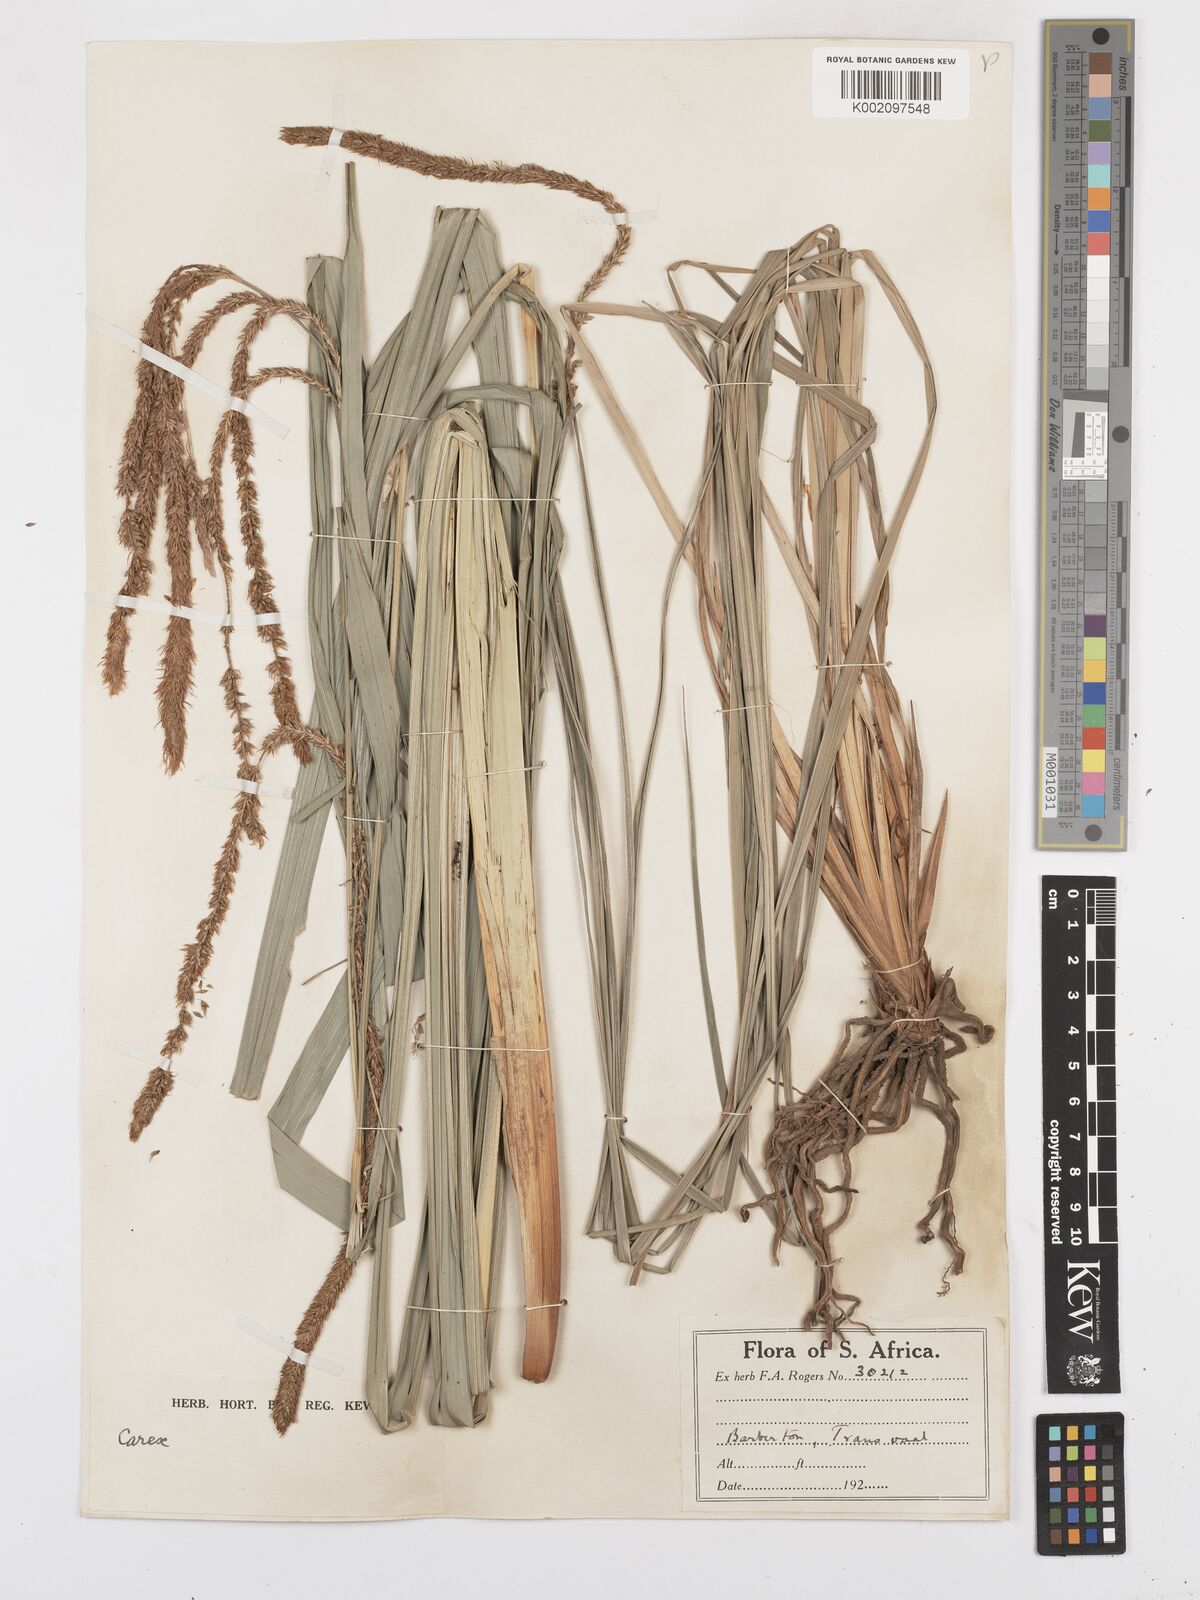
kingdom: Plantae
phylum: Tracheophyta
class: Liliopsida
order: Poales
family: Cyperaceae
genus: Carex
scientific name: Carex petitiana
